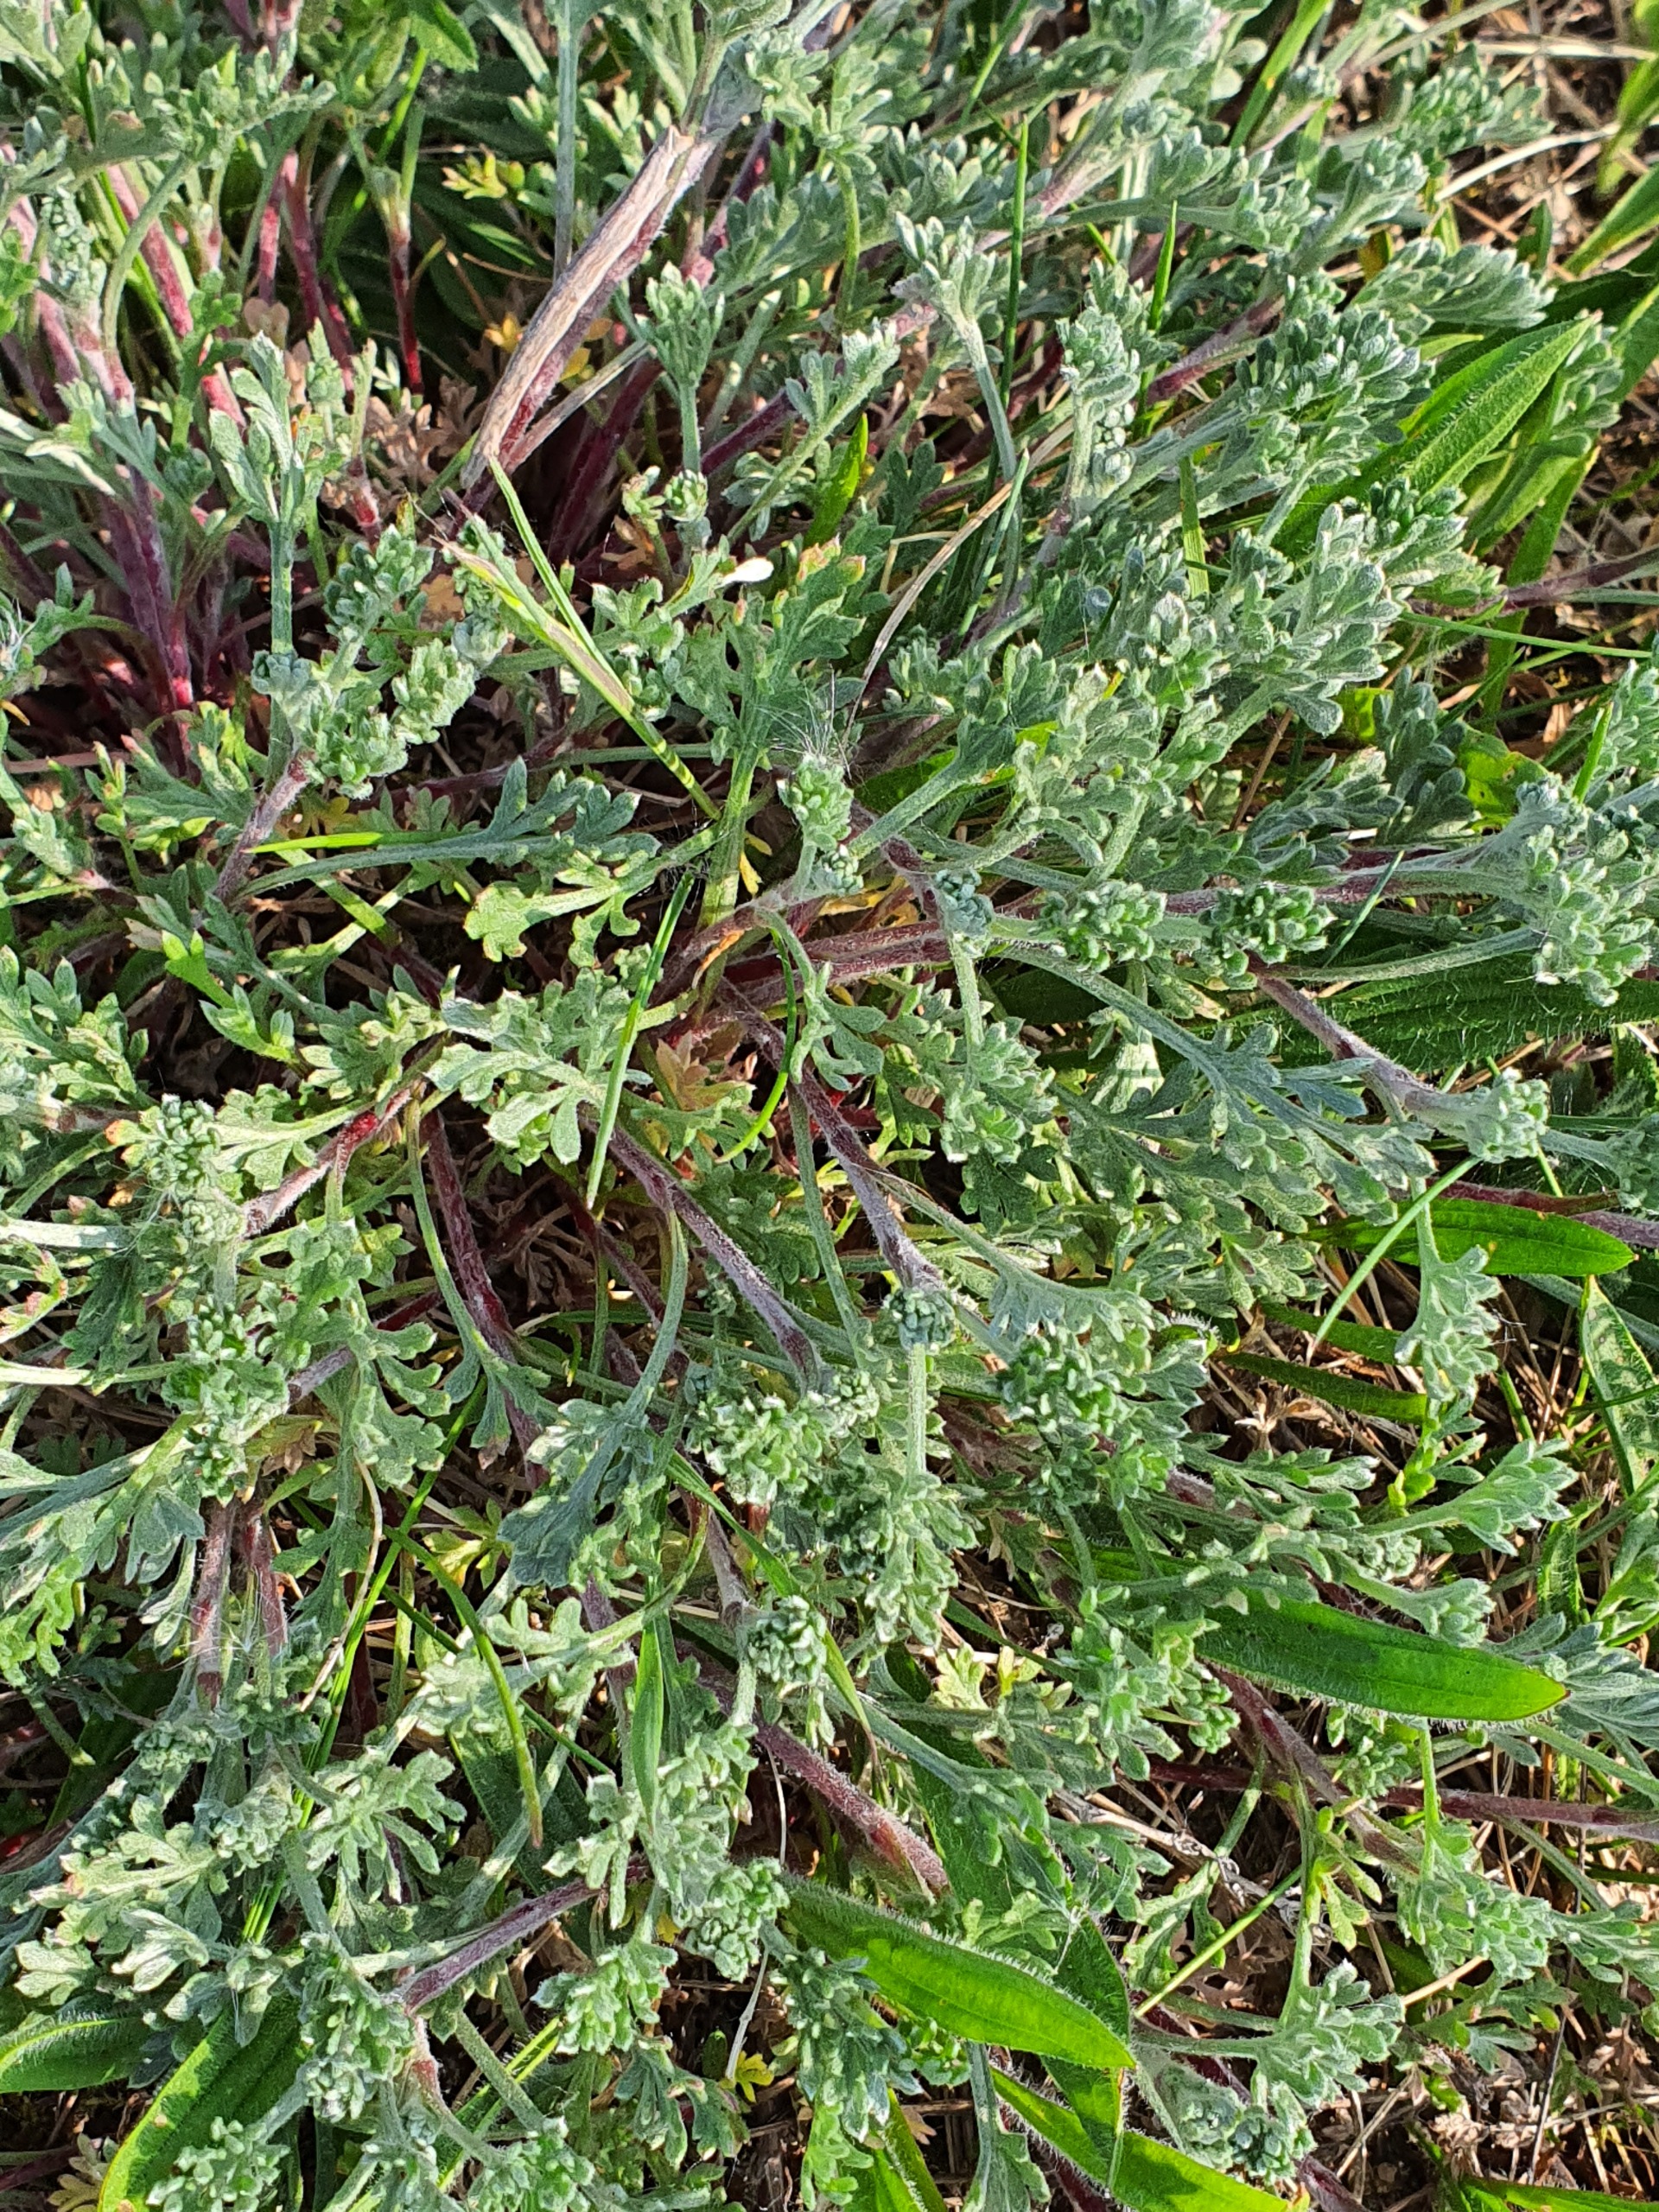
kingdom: Plantae
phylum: Tracheophyta
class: Magnoliopsida
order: Asterales
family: Asteraceae
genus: Artemisia
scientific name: Artemisia maritima
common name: Strandmalurt
